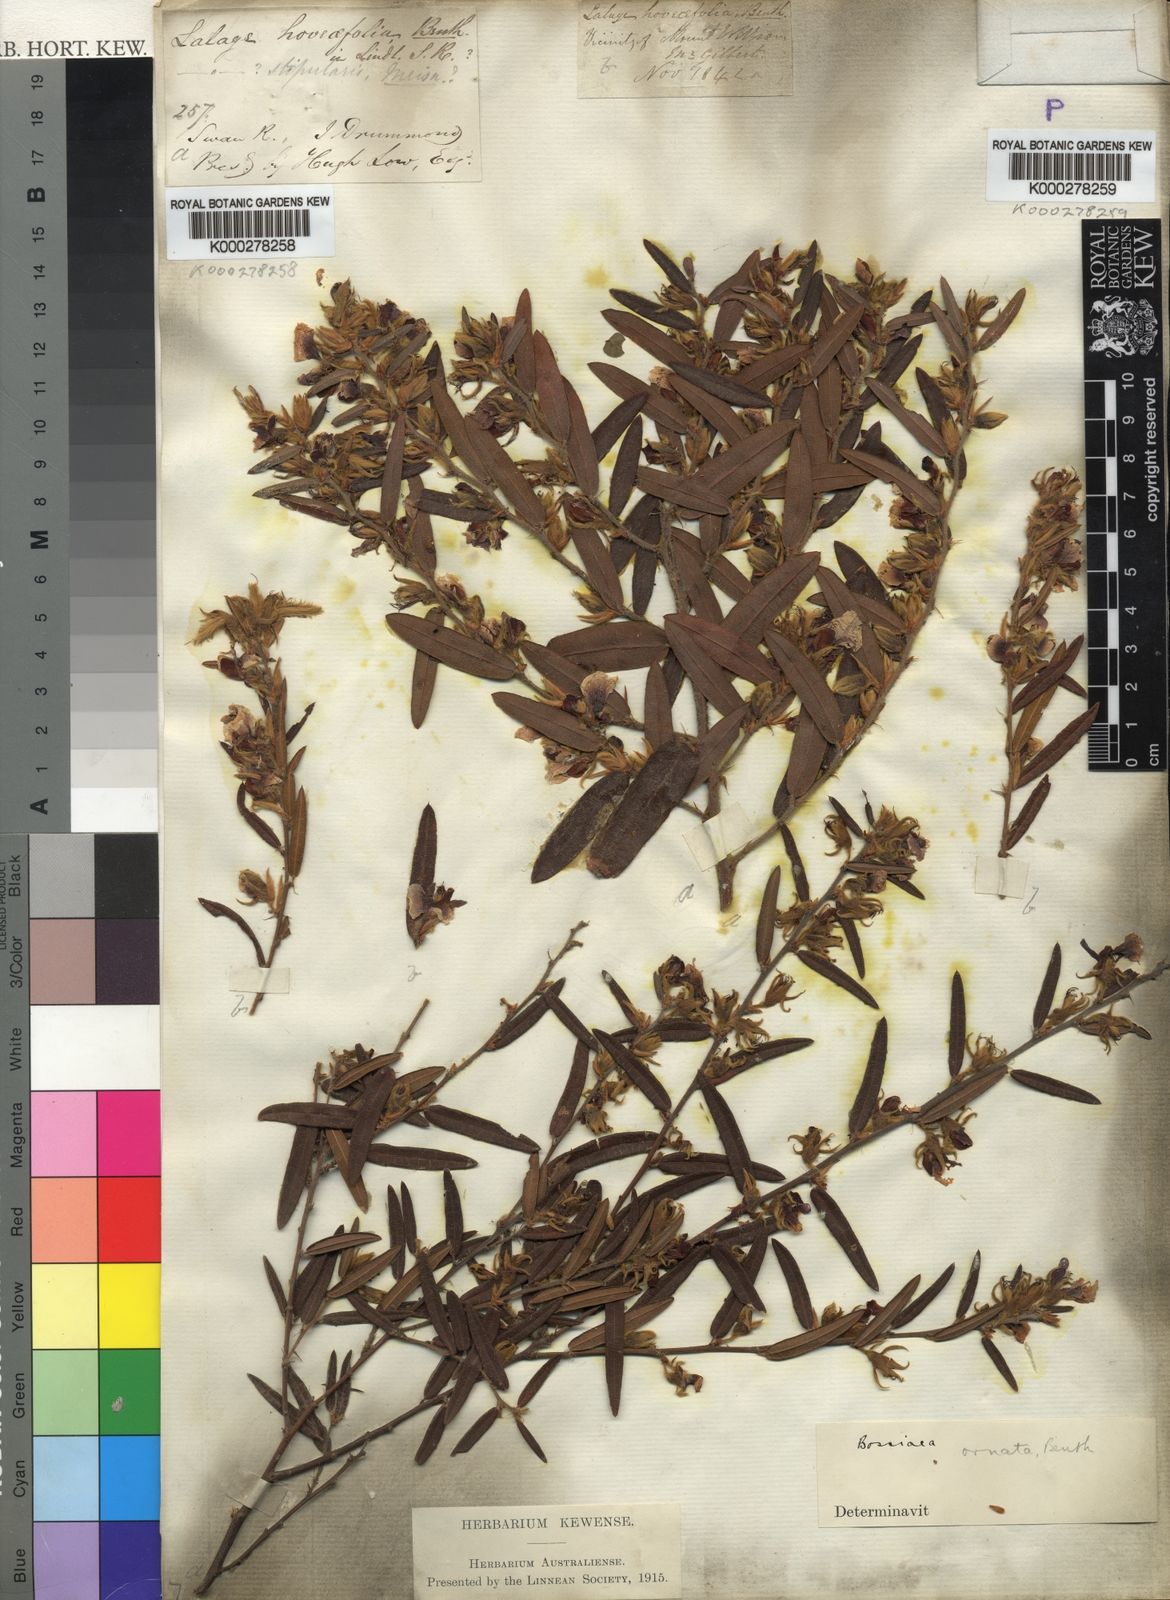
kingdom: Plantae
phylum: Tracheophyta
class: Magnoliopsida
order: Fabales
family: Fabaceae
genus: Bossiaea
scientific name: Bossiaea ornata
